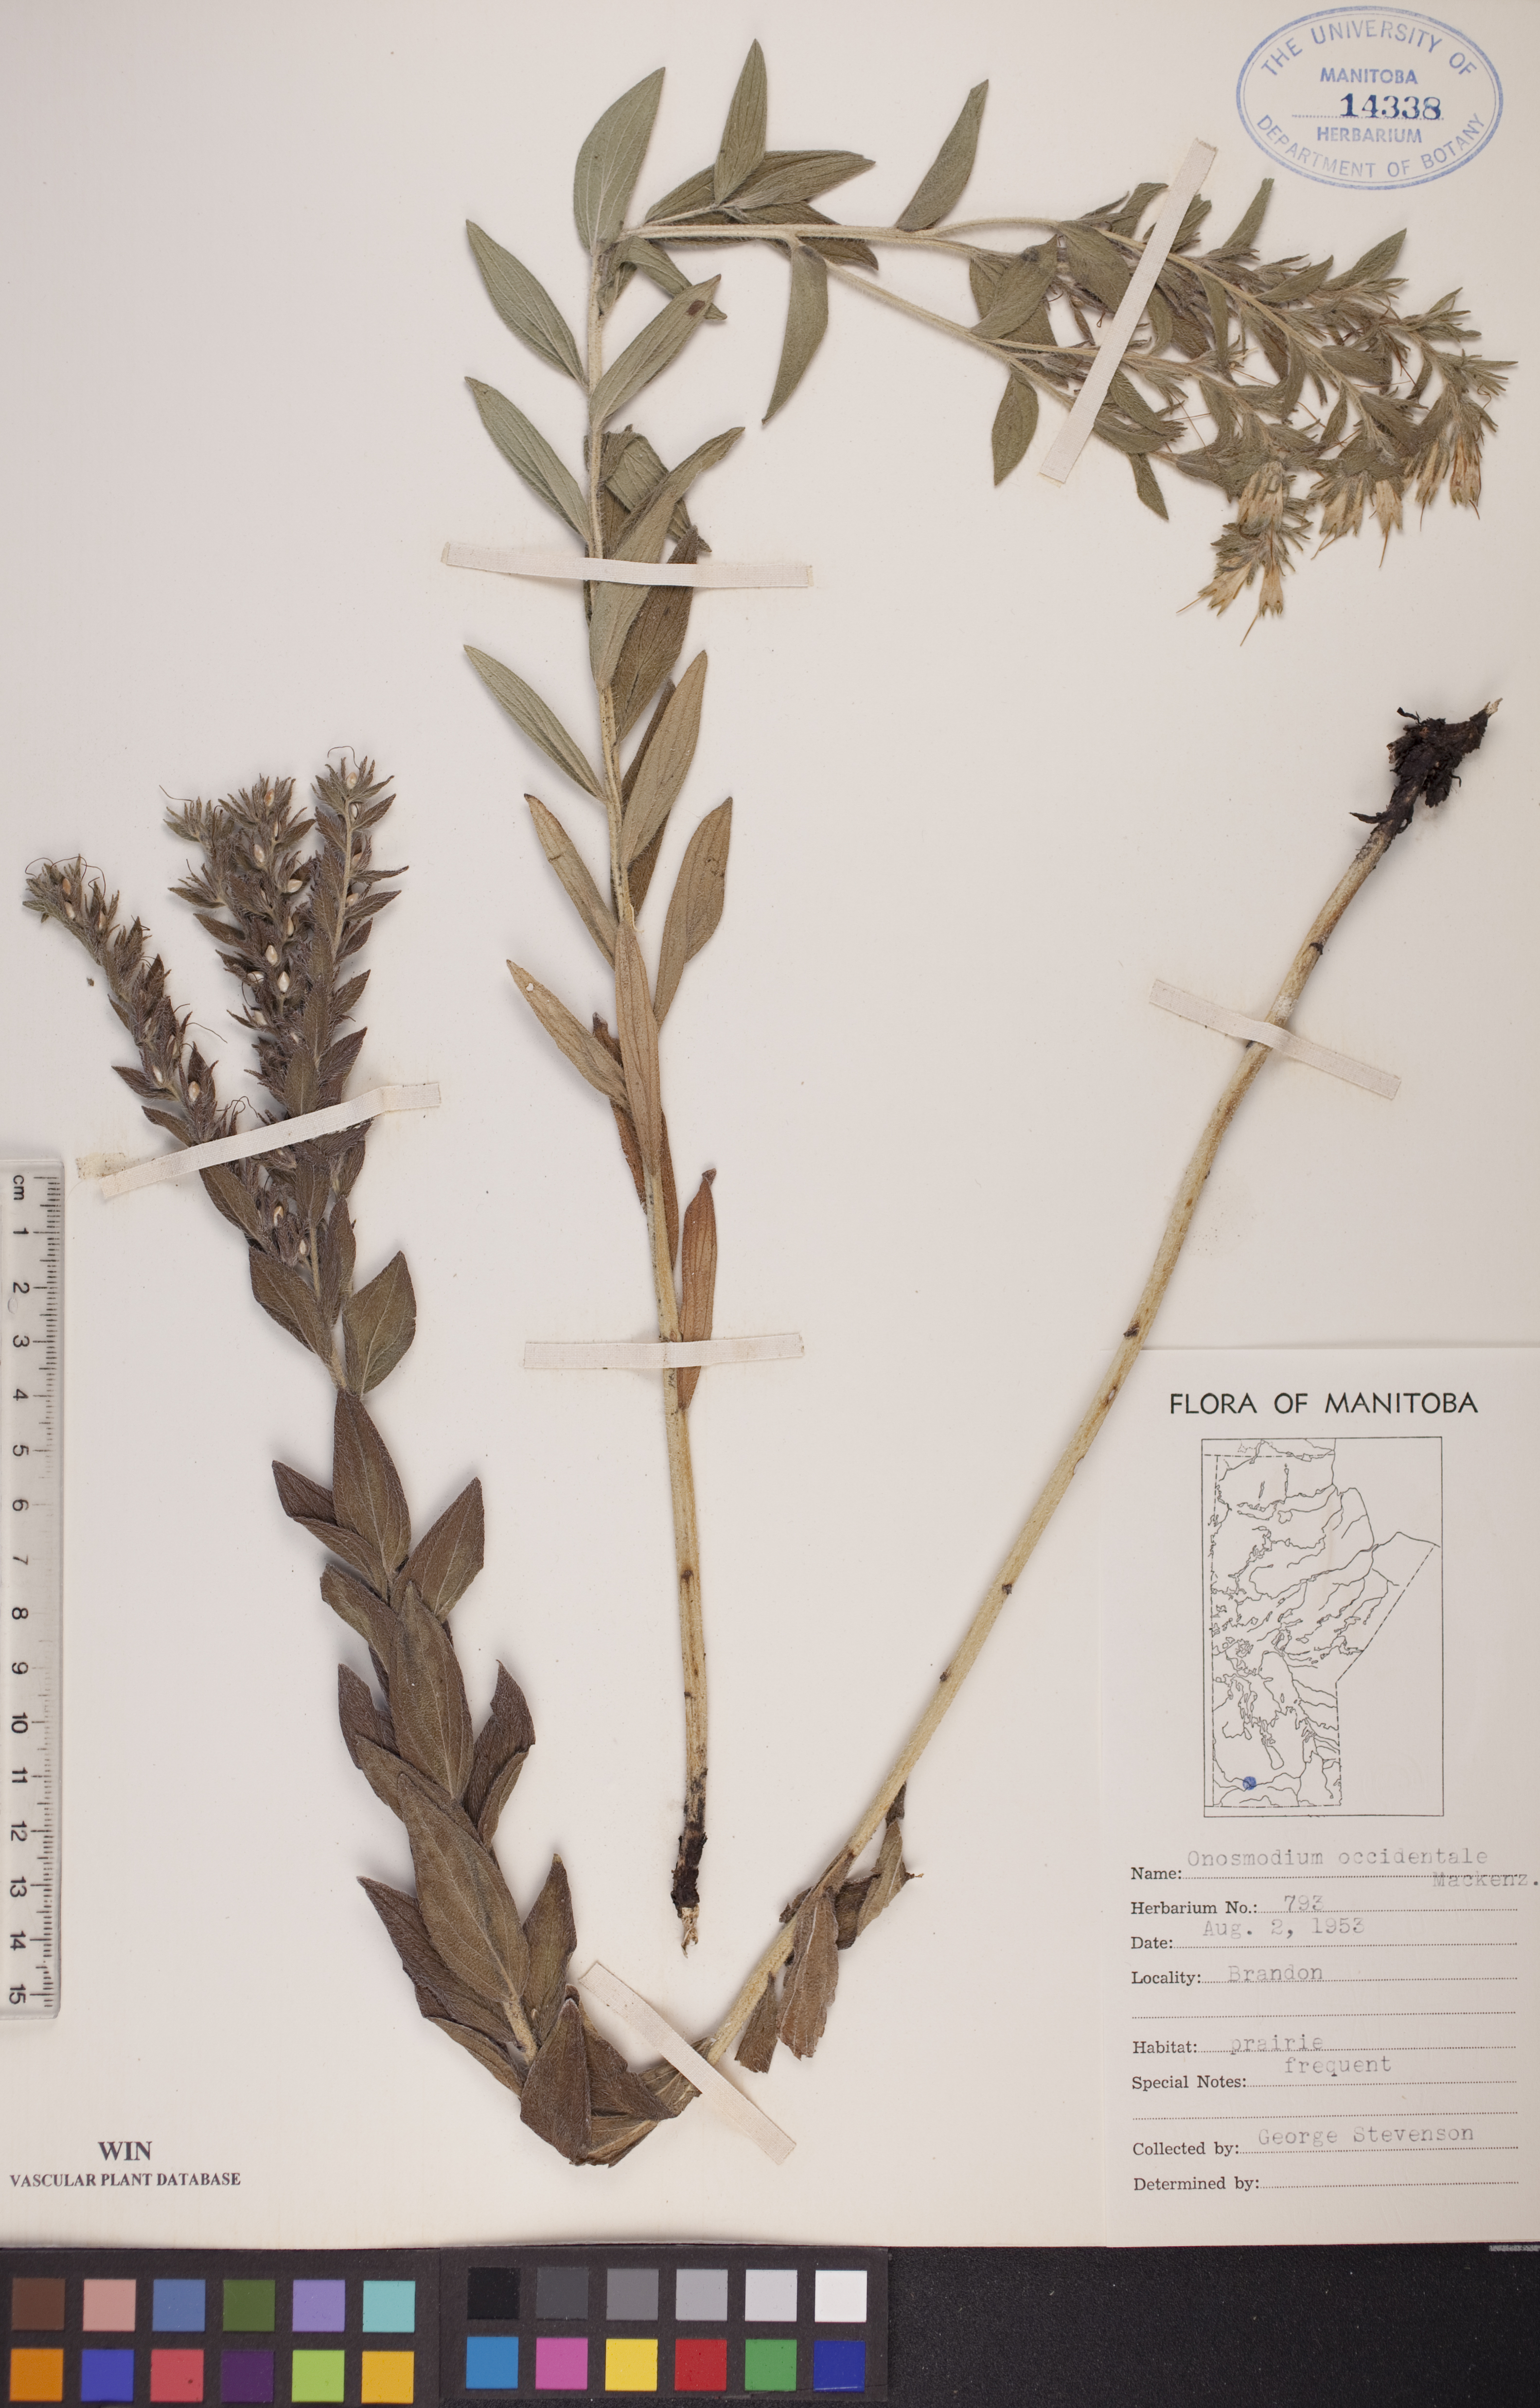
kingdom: Plantae
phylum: Tracheophyta
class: Magnoliopsida
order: Boraginales
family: Boraginaceae
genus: Lithospermum
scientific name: Lithospermum occidentale
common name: Western false gromwell
